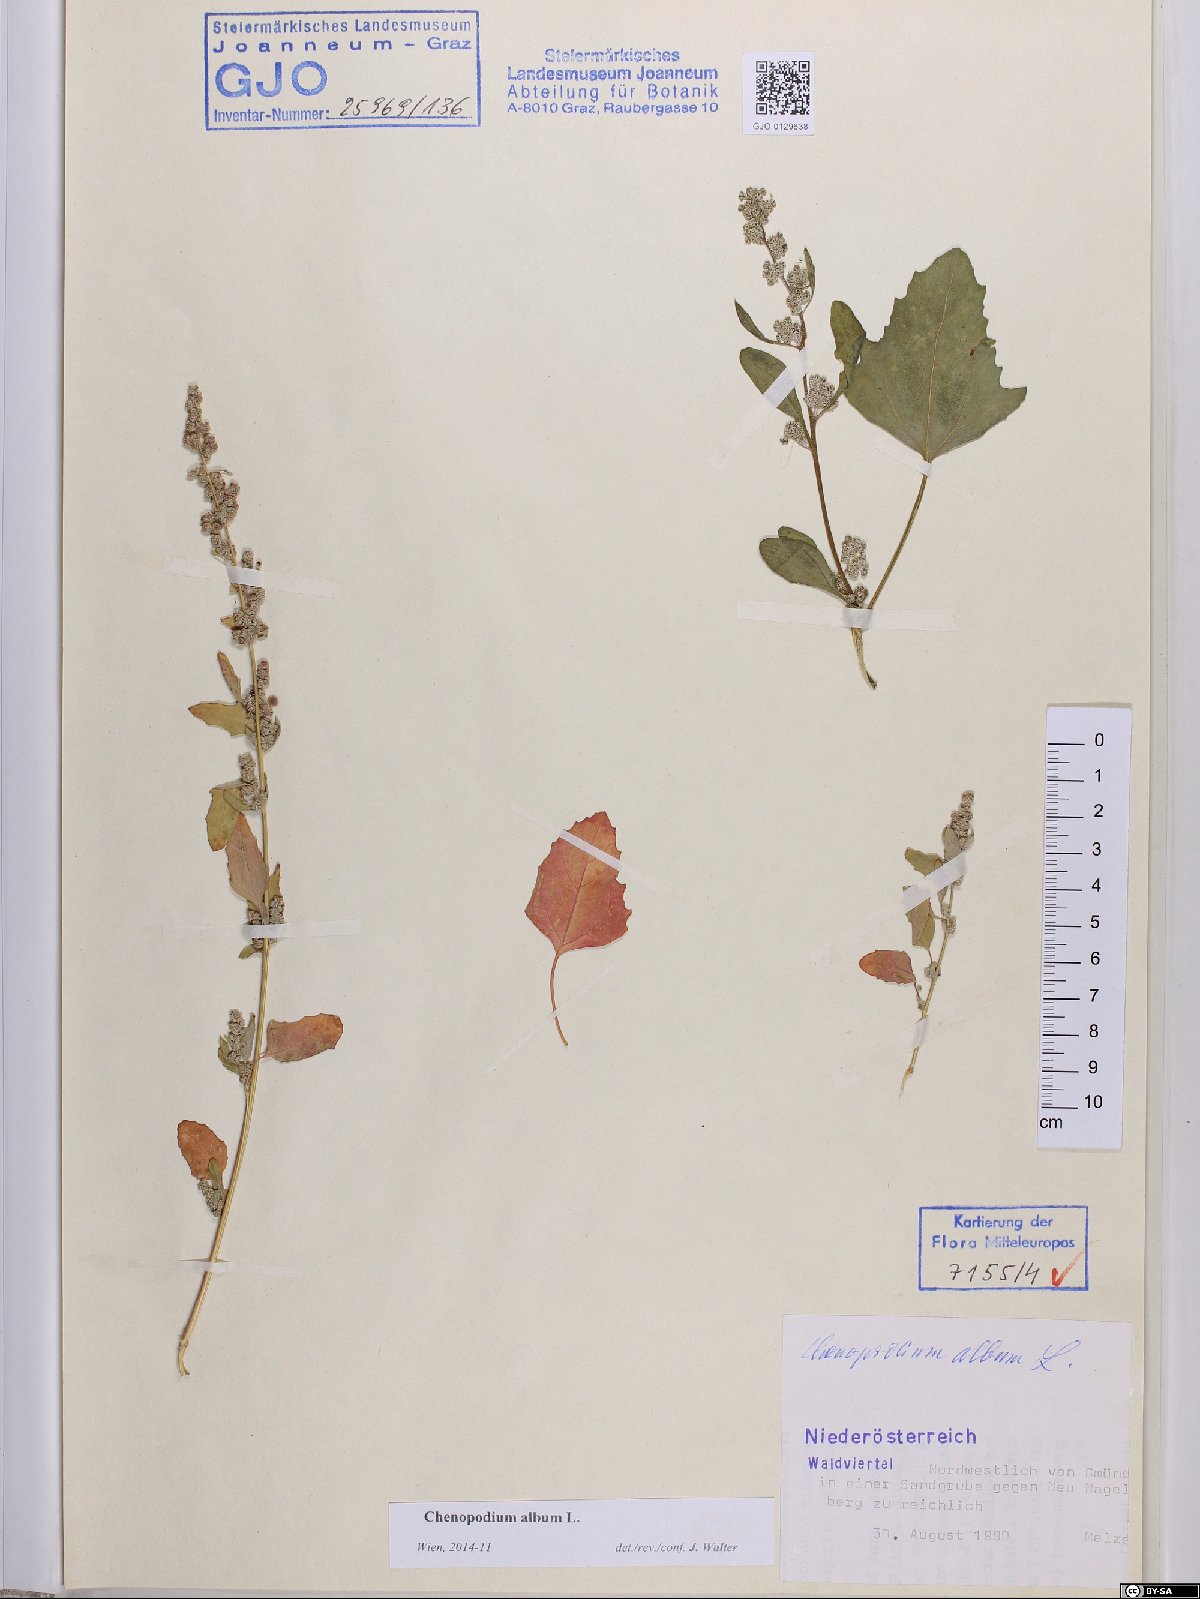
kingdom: Plantae
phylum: Tracheophyta
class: Magnoliopsida
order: Caryophyllales
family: Amaranthaceae
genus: Chenopodium
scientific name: Chenopodium album
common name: Fat-hen
